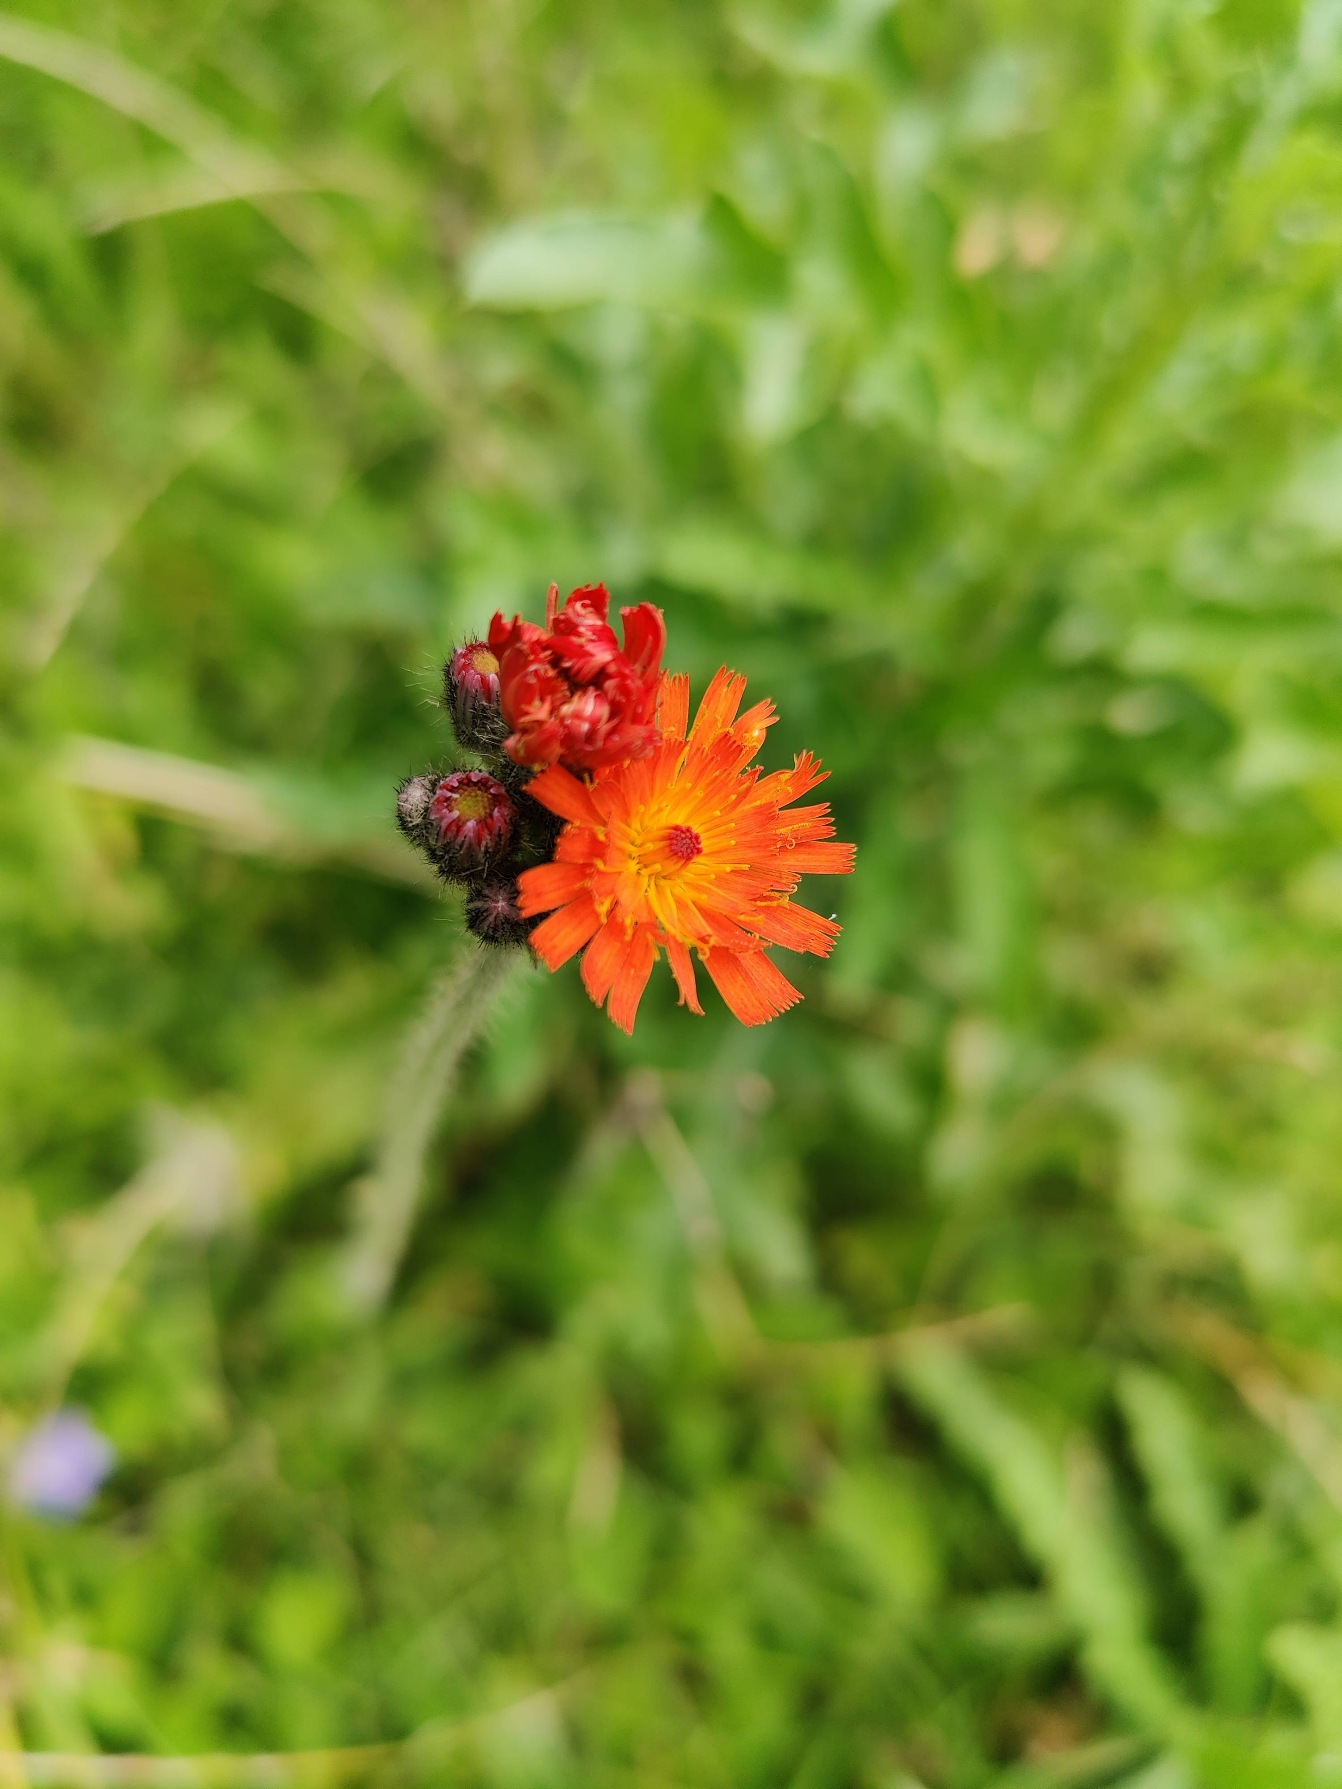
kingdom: Plantae
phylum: Tracheophyta
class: Magnoliopsida
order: Asterales
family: Asteraceae
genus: Pilosella
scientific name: Pilosella aurantiaca
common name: Pomerans-høgeurt
